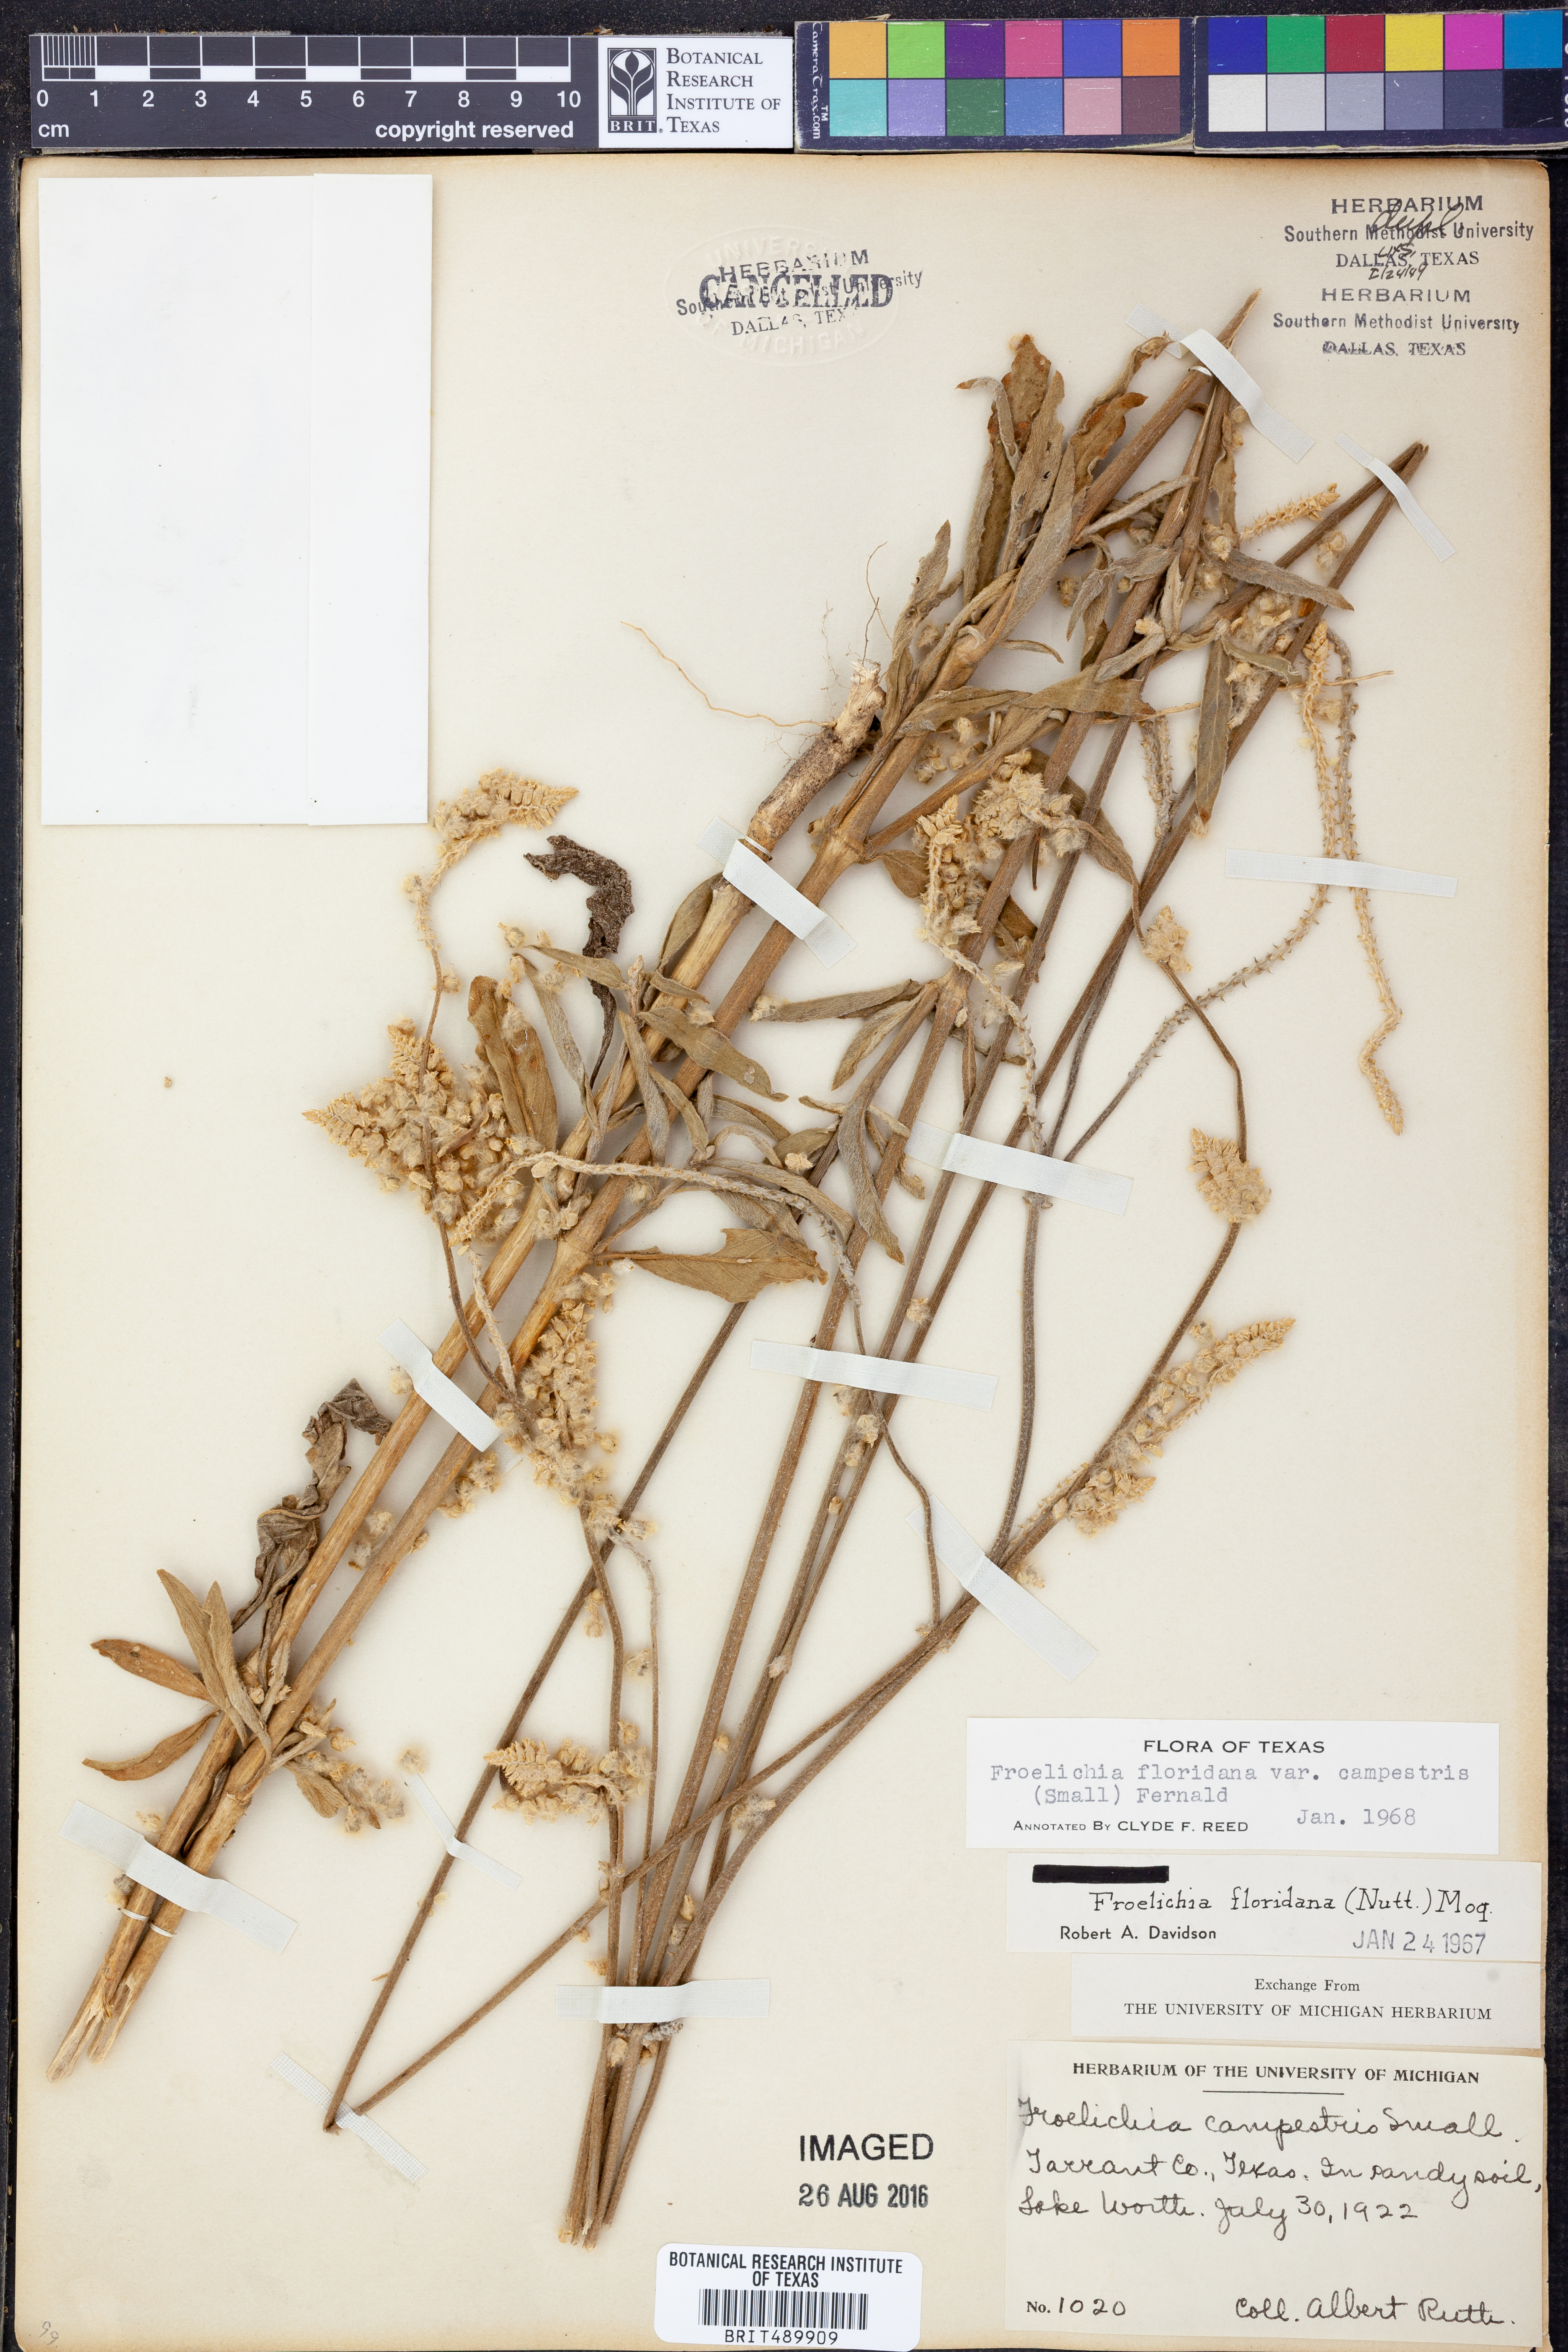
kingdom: Plantae
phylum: Tracheophyta
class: Magnoliopsida
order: Caryophyllales
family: Amaranthaceae
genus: Froelichia
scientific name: Froelichia floridana
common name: Florida snake-cotton
